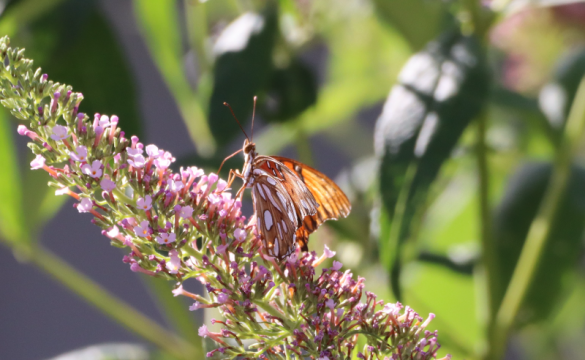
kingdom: Animalia
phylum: Arthropoda
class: Insecta
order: Lepidoptera
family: Nymphalidae
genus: Dione
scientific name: Dione vanillae
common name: Gulf Fritillary
